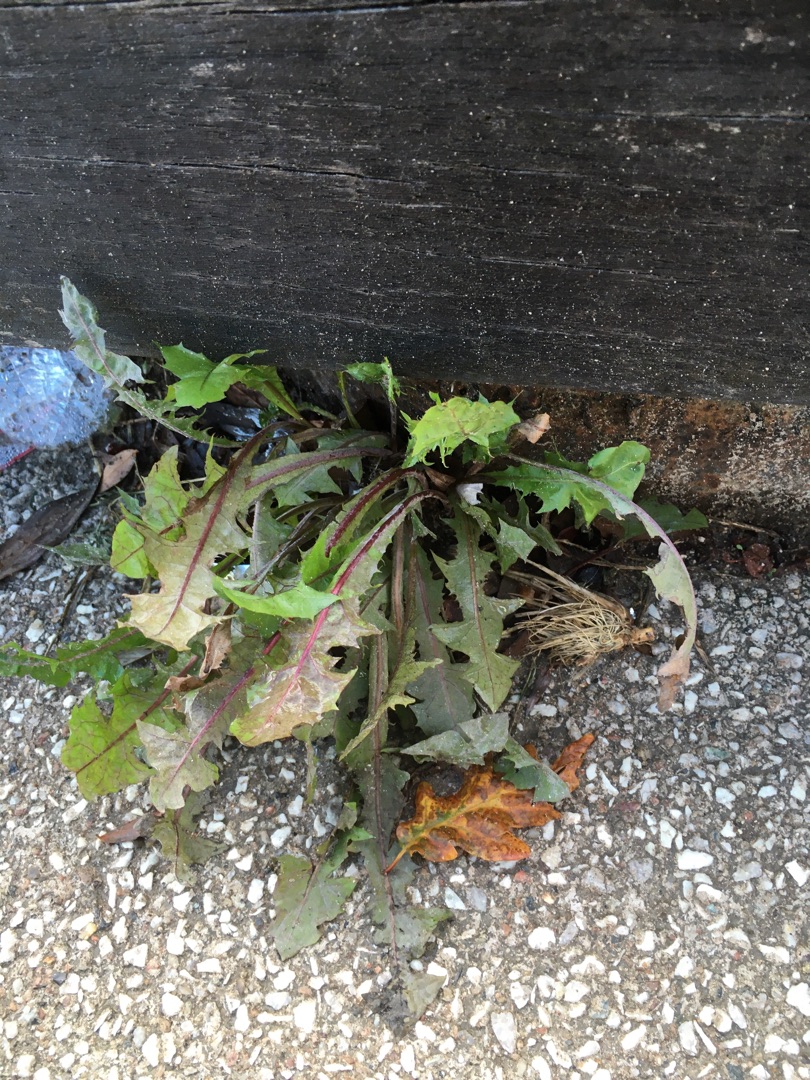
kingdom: Plantae
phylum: Tracheophyta
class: Magnoliopsida
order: Asterales
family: Asteraceae
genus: Taraxacum
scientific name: Taraxacum
